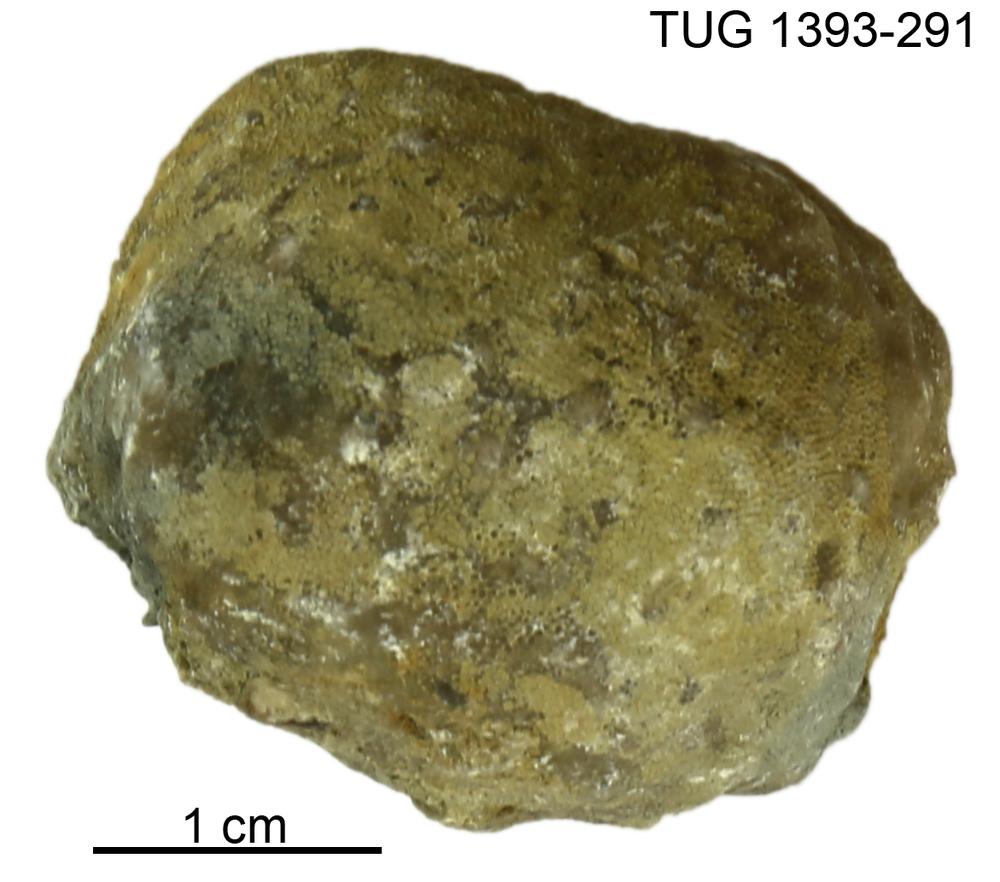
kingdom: Animalia
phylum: Bryozoa
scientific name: Bryozoa
